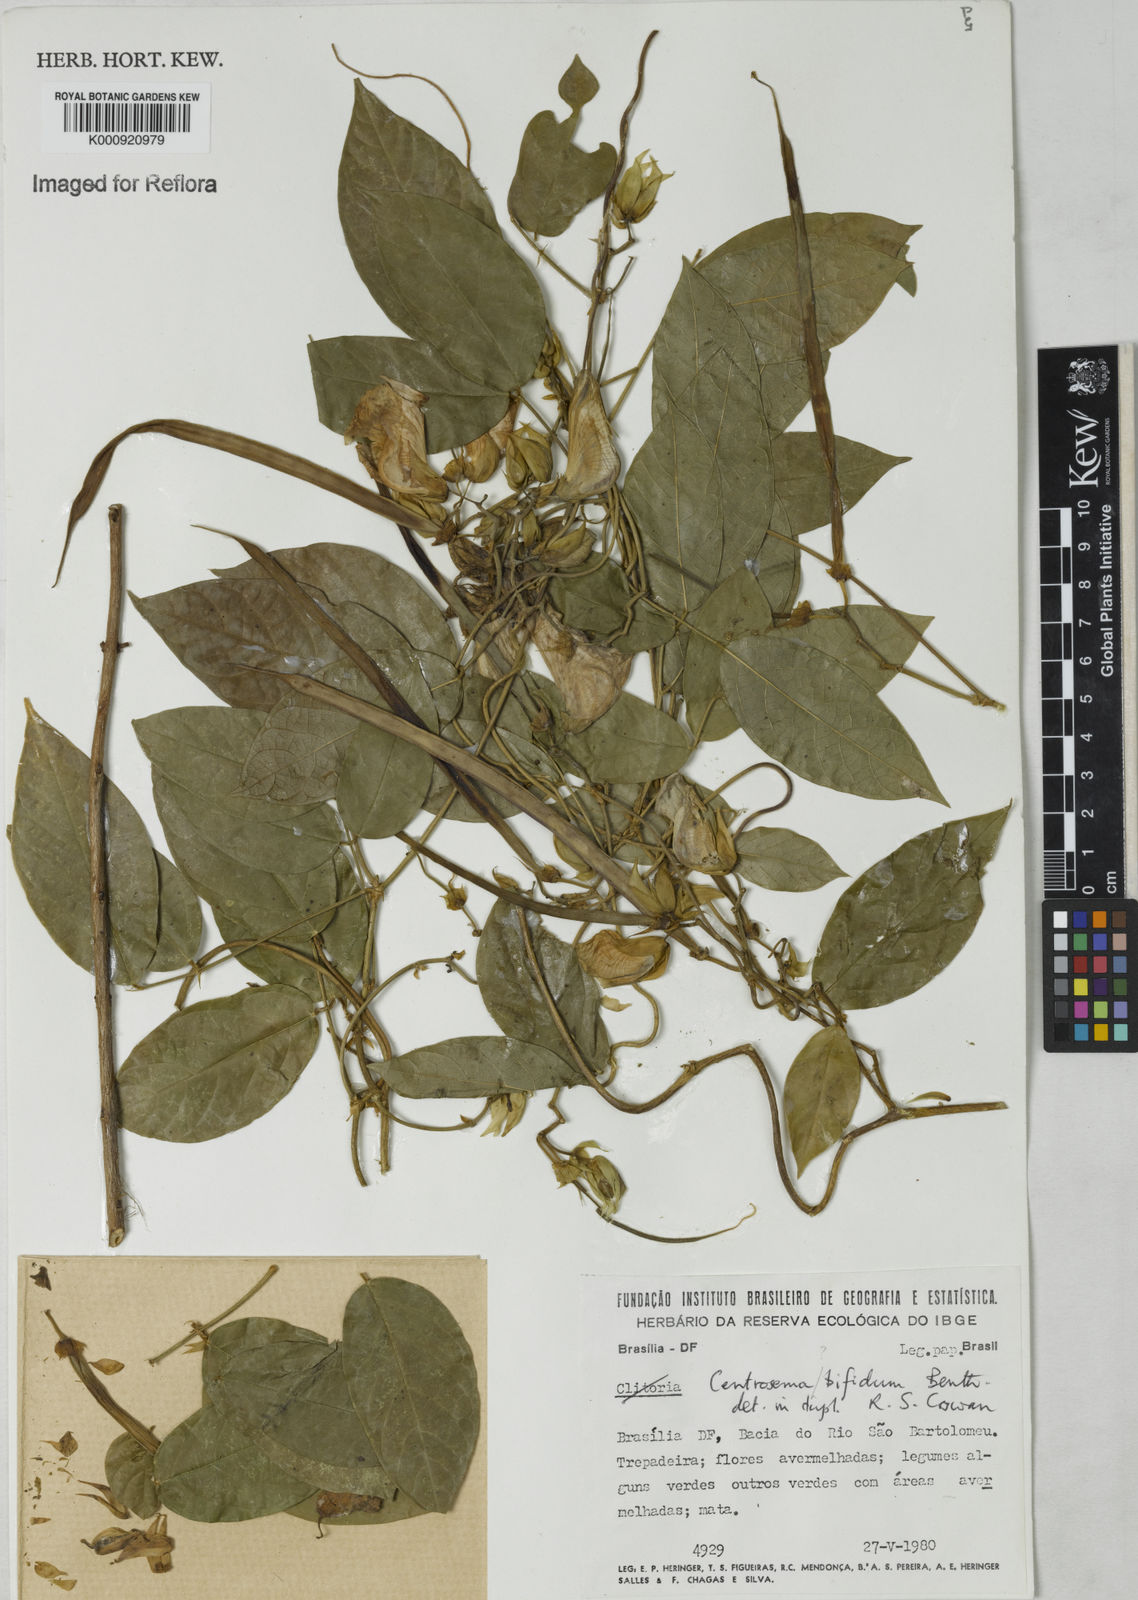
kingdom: Plantae
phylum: Tracheophyta
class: Magnoliopsida
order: Fabales
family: Fabaceae
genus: Centrosema
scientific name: Centrosema
